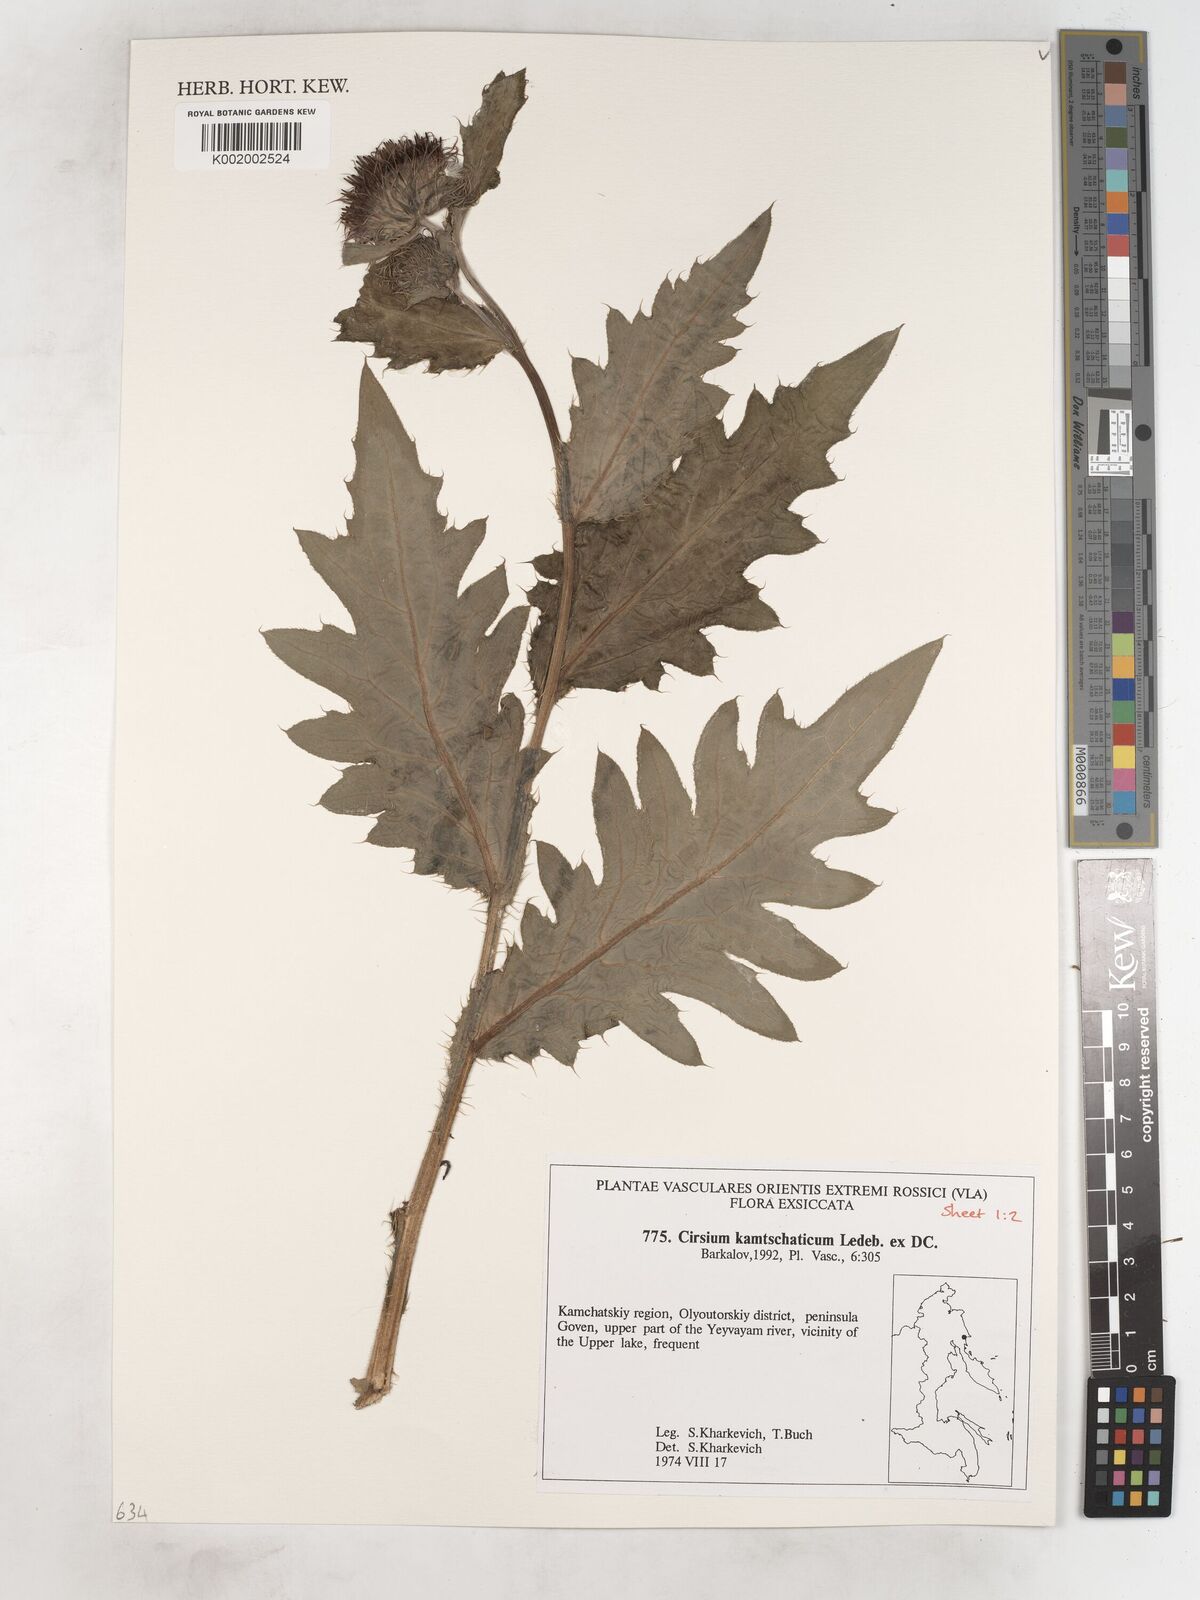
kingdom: Plantae
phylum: Tracheophyta
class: Magnoliopsida
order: Asterales
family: Asteraceae
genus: Cirsium
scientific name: Cirsium kamtschaticum
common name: Kamchatka thistle
